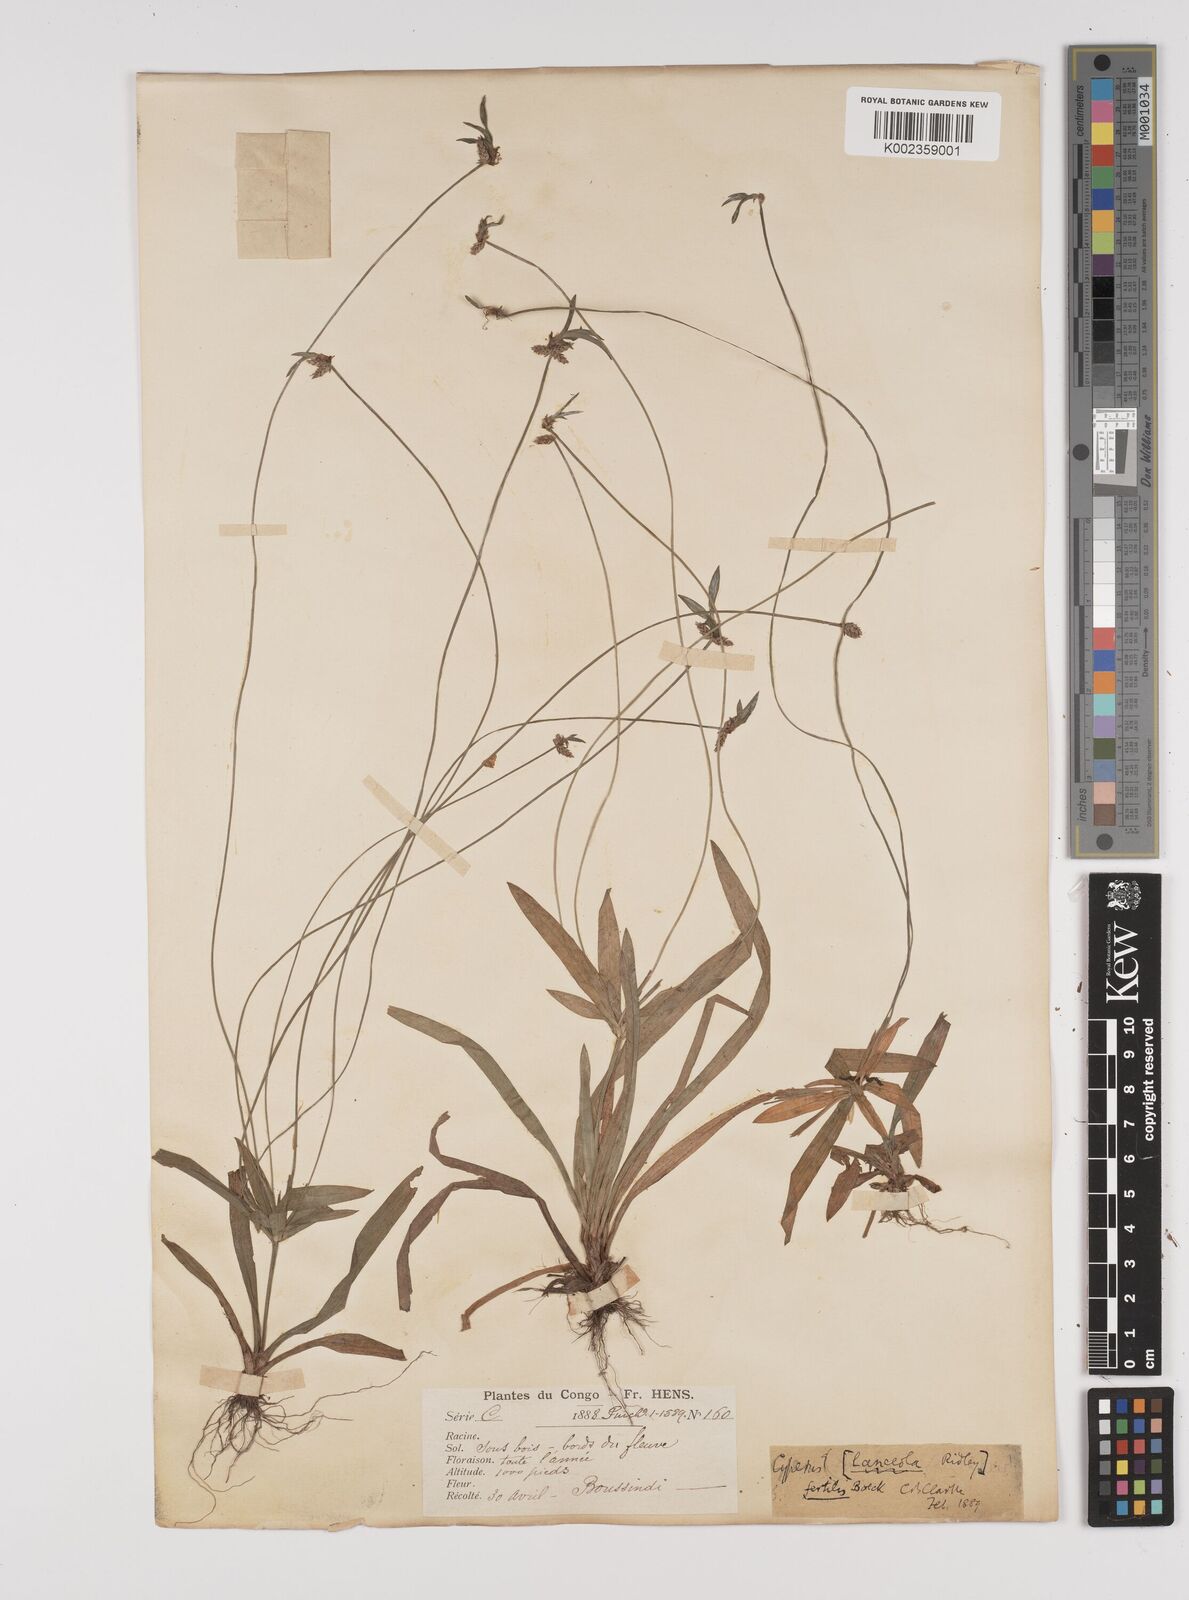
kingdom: Plantae
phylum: Tracheophyta
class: Liliopsida
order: Poales
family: Cyperaceae
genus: Cyperus
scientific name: Cyperus fertilis
